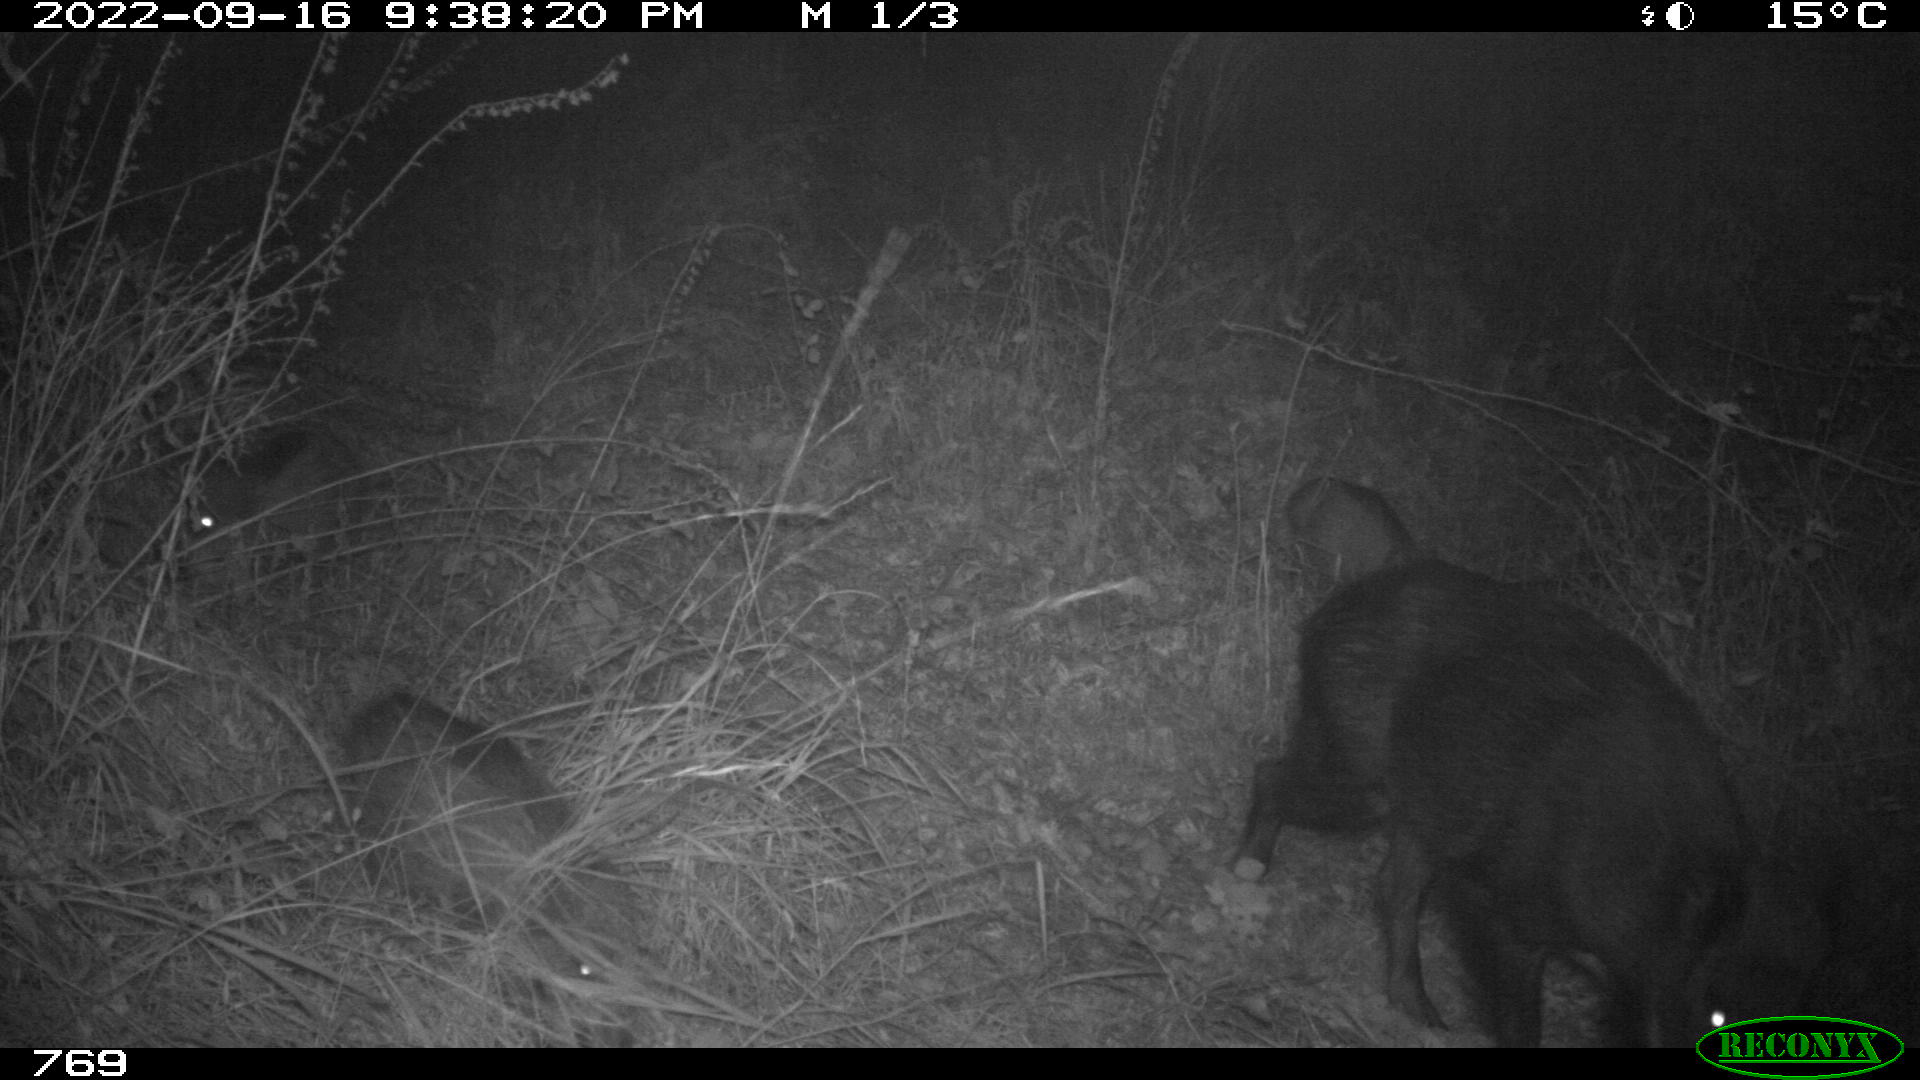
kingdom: Animalia
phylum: Chordata
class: Mammalia
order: Artiodactyla
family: Suidae
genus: Sus
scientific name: Sus scrofa
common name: Wild boar
